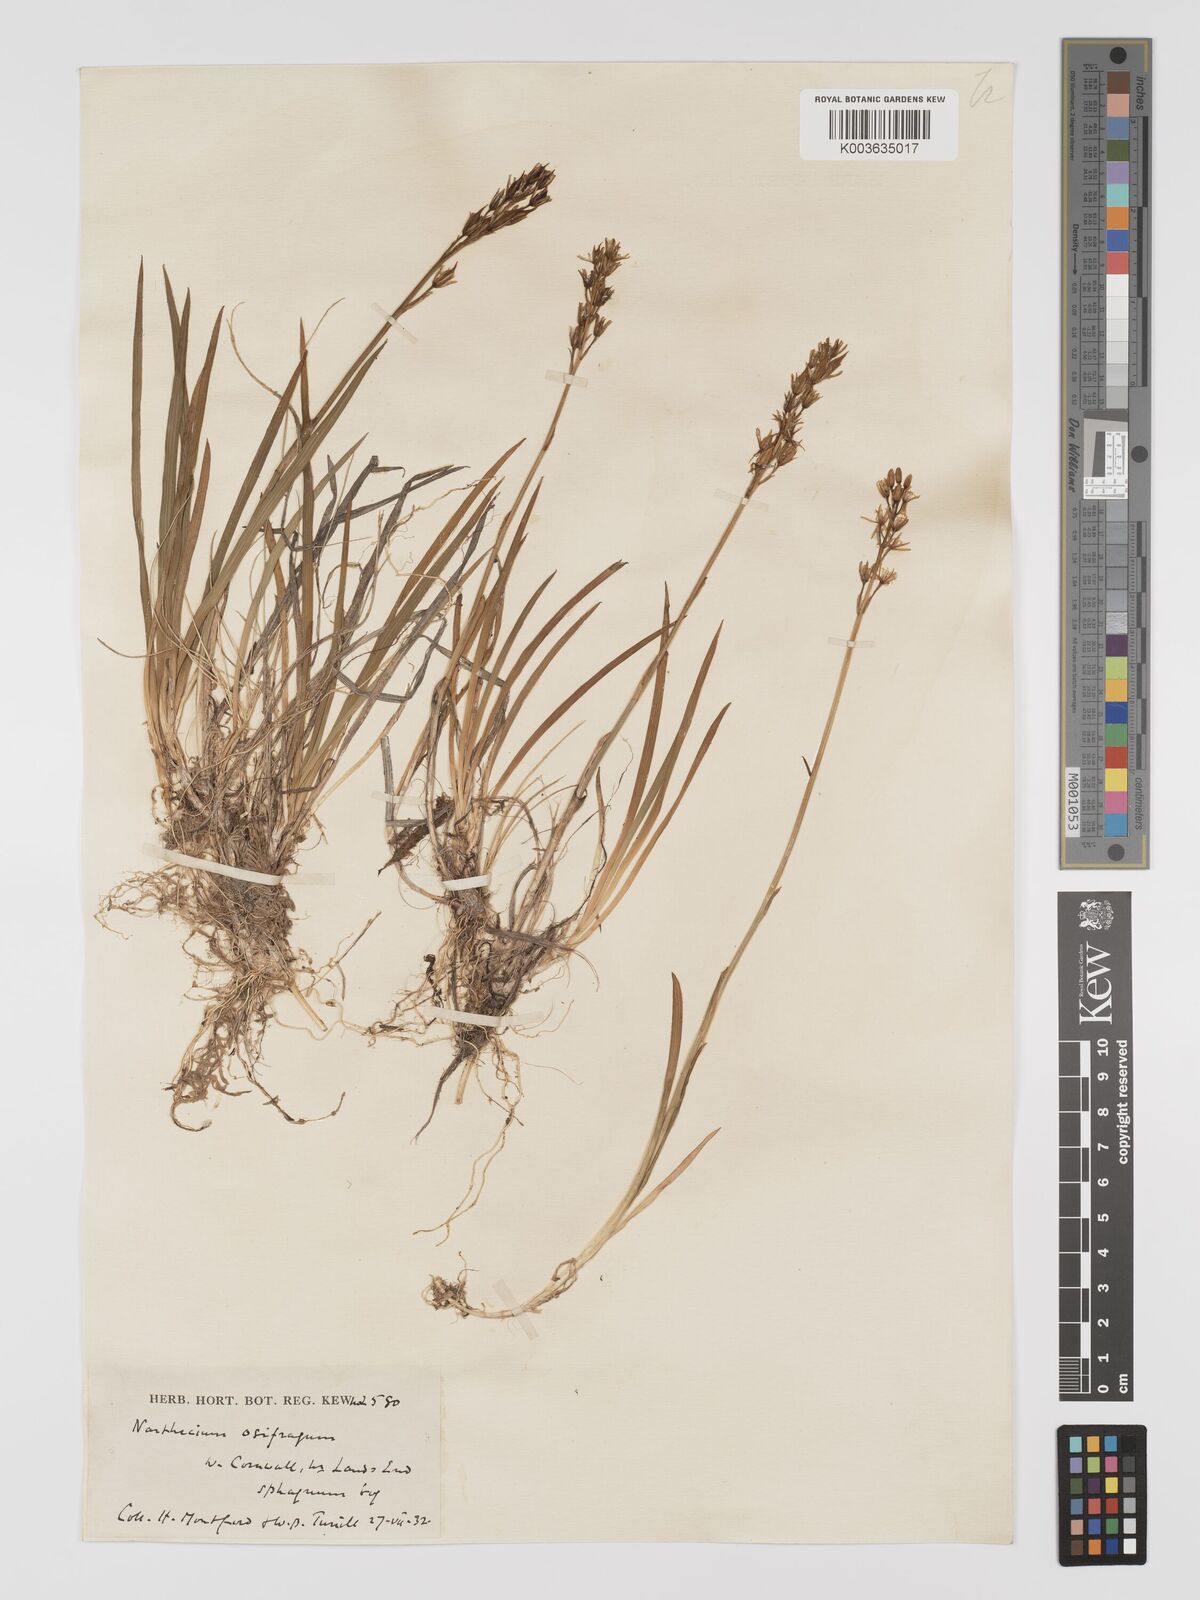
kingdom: Plantae
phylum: Tracheophyta
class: Liliopsida
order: Dioscoreales
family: Nartheciaceae
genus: Narthecium
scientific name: Narthecium ossifragum
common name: Bog asphodel
